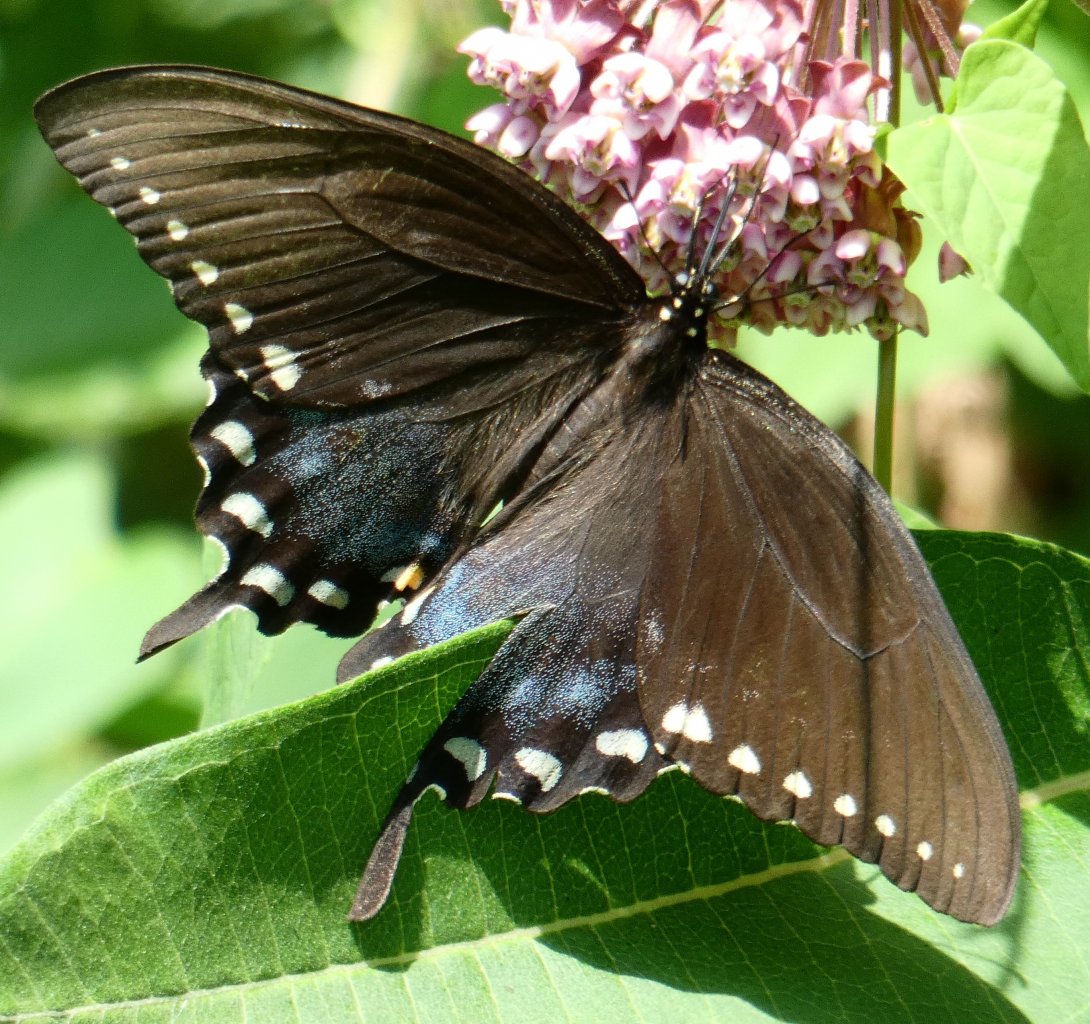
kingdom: Animalia
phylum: Arthropoda
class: Insecta
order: Lepidoptera
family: Papilionidae
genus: Pterourus
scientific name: Pterourus troilus
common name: Spicebush Swallowtail
